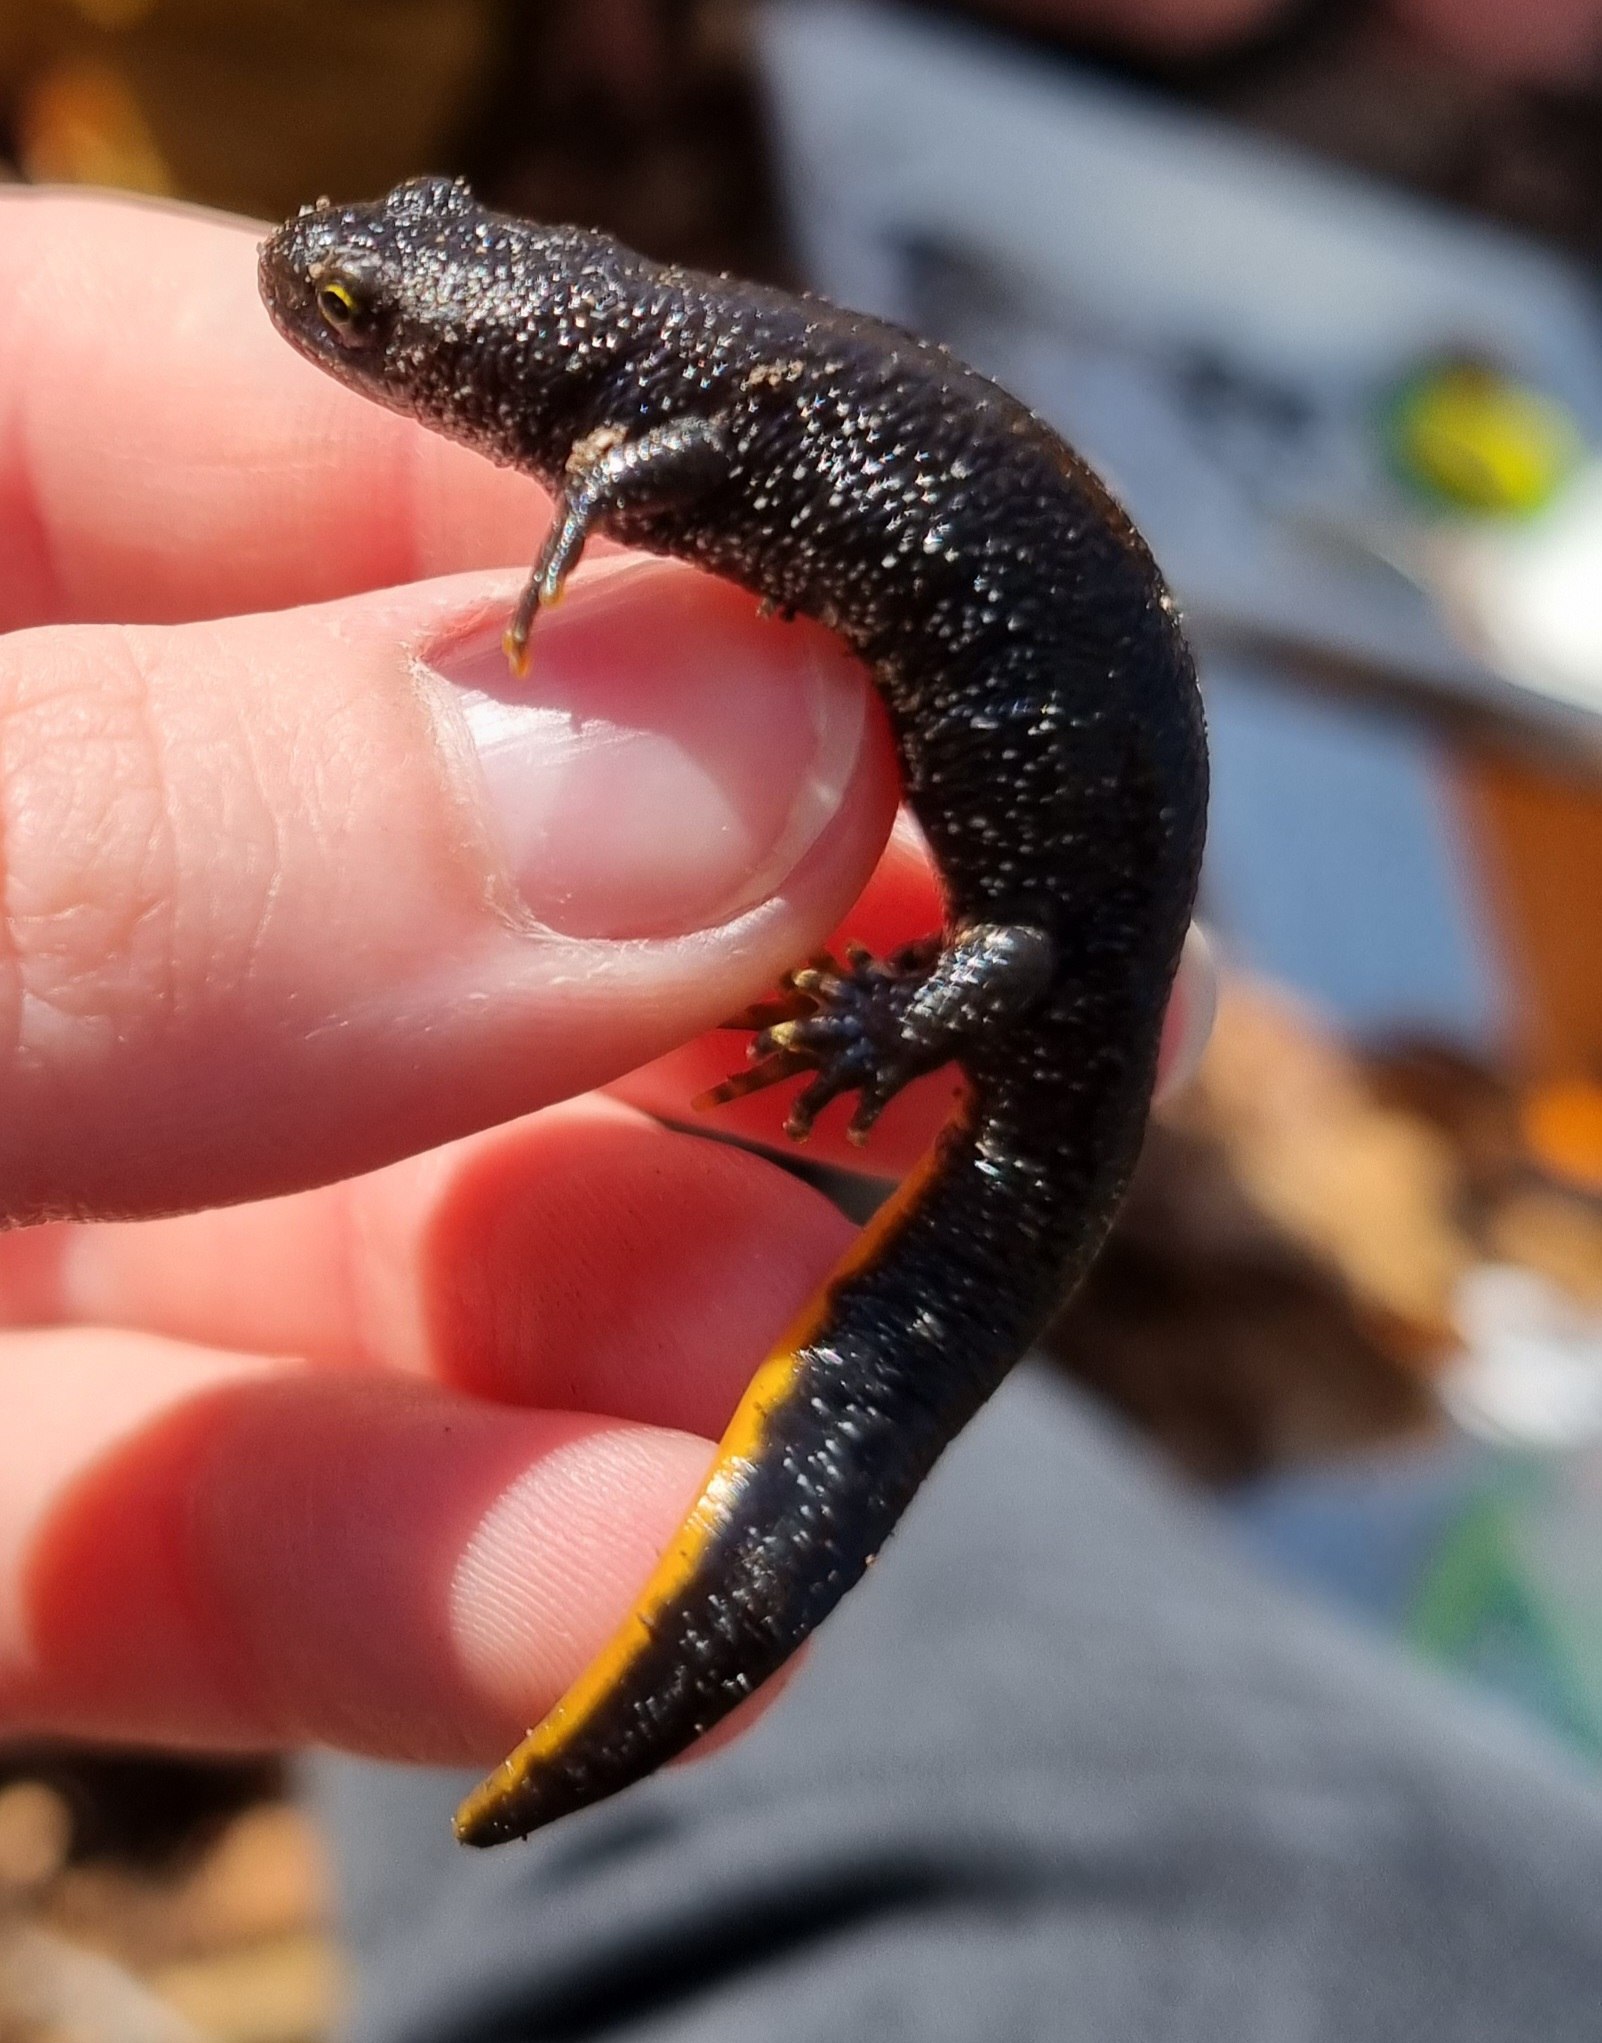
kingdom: Animalia
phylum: Chordata
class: Amphibia
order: Caudata
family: Salamandridae
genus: Triturus
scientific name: Triturus cristatus
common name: Stor vandsalamander
